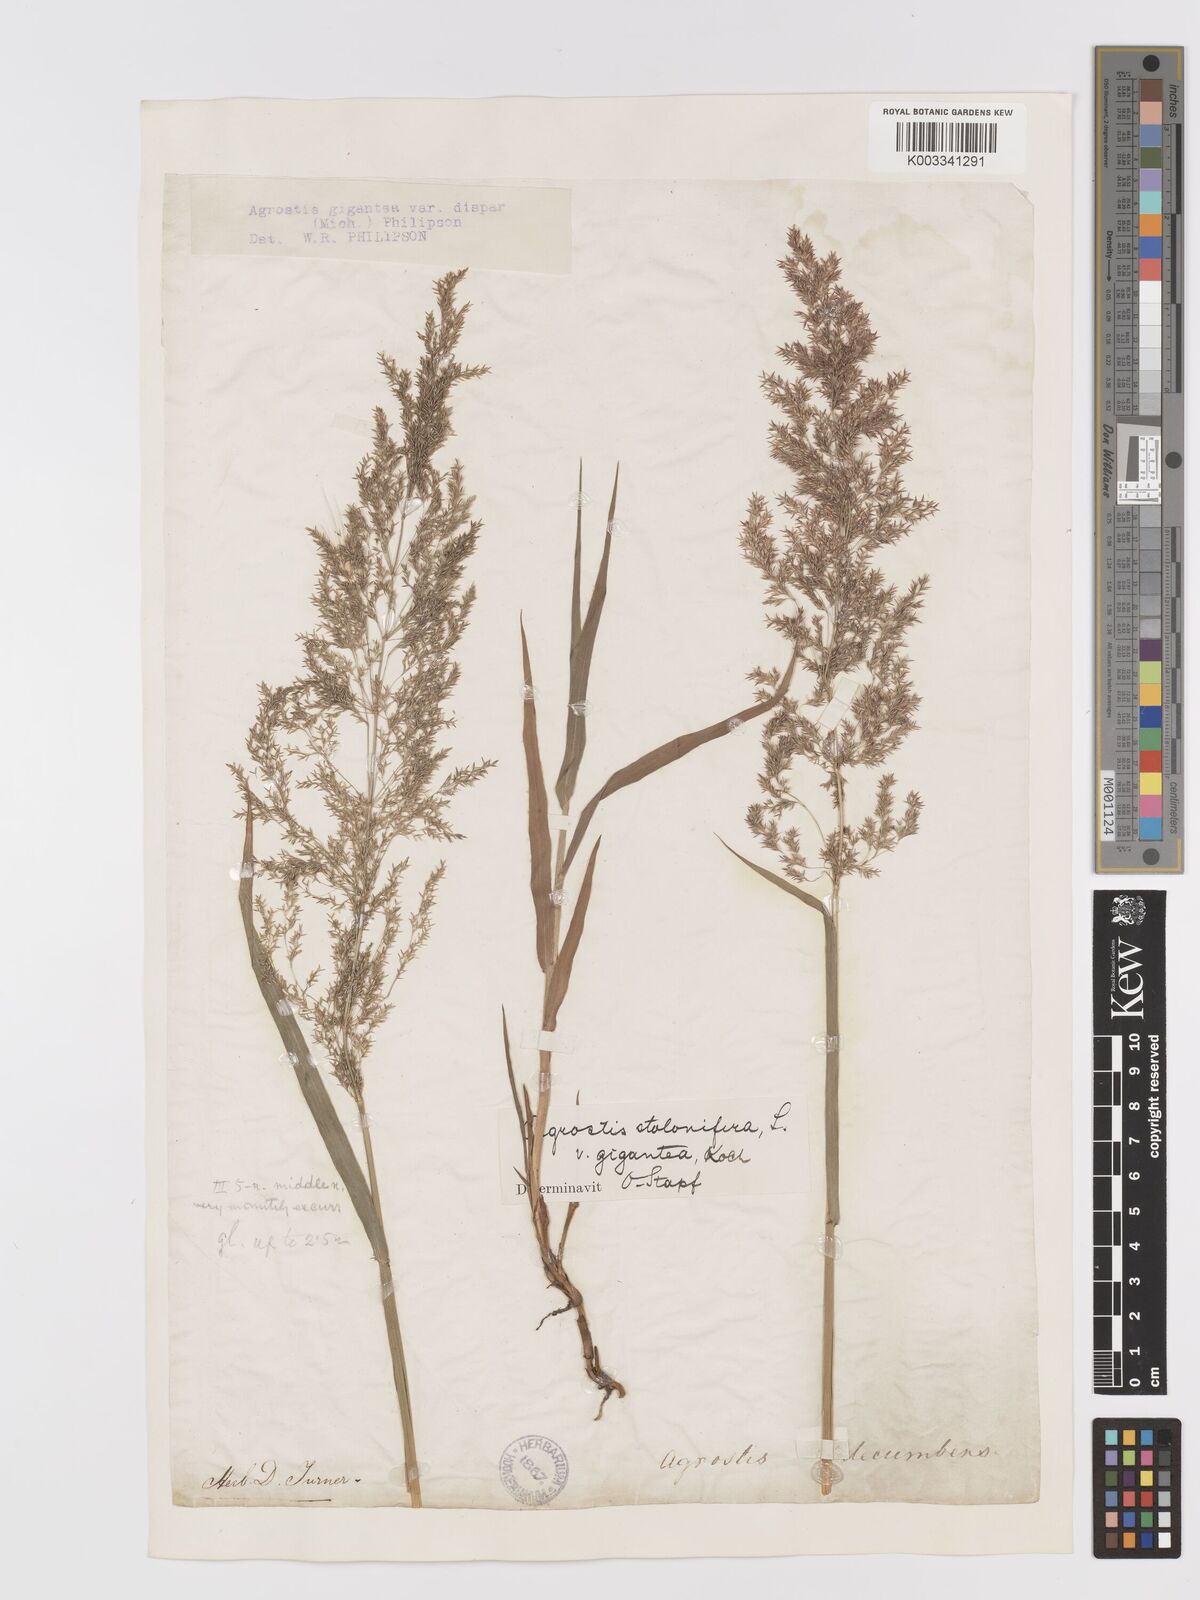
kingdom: Plantae
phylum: Tracheophyta
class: Liliopsida
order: Poales
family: Poaceae
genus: Agrostis
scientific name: Agrostis gigantea
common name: Black bent
